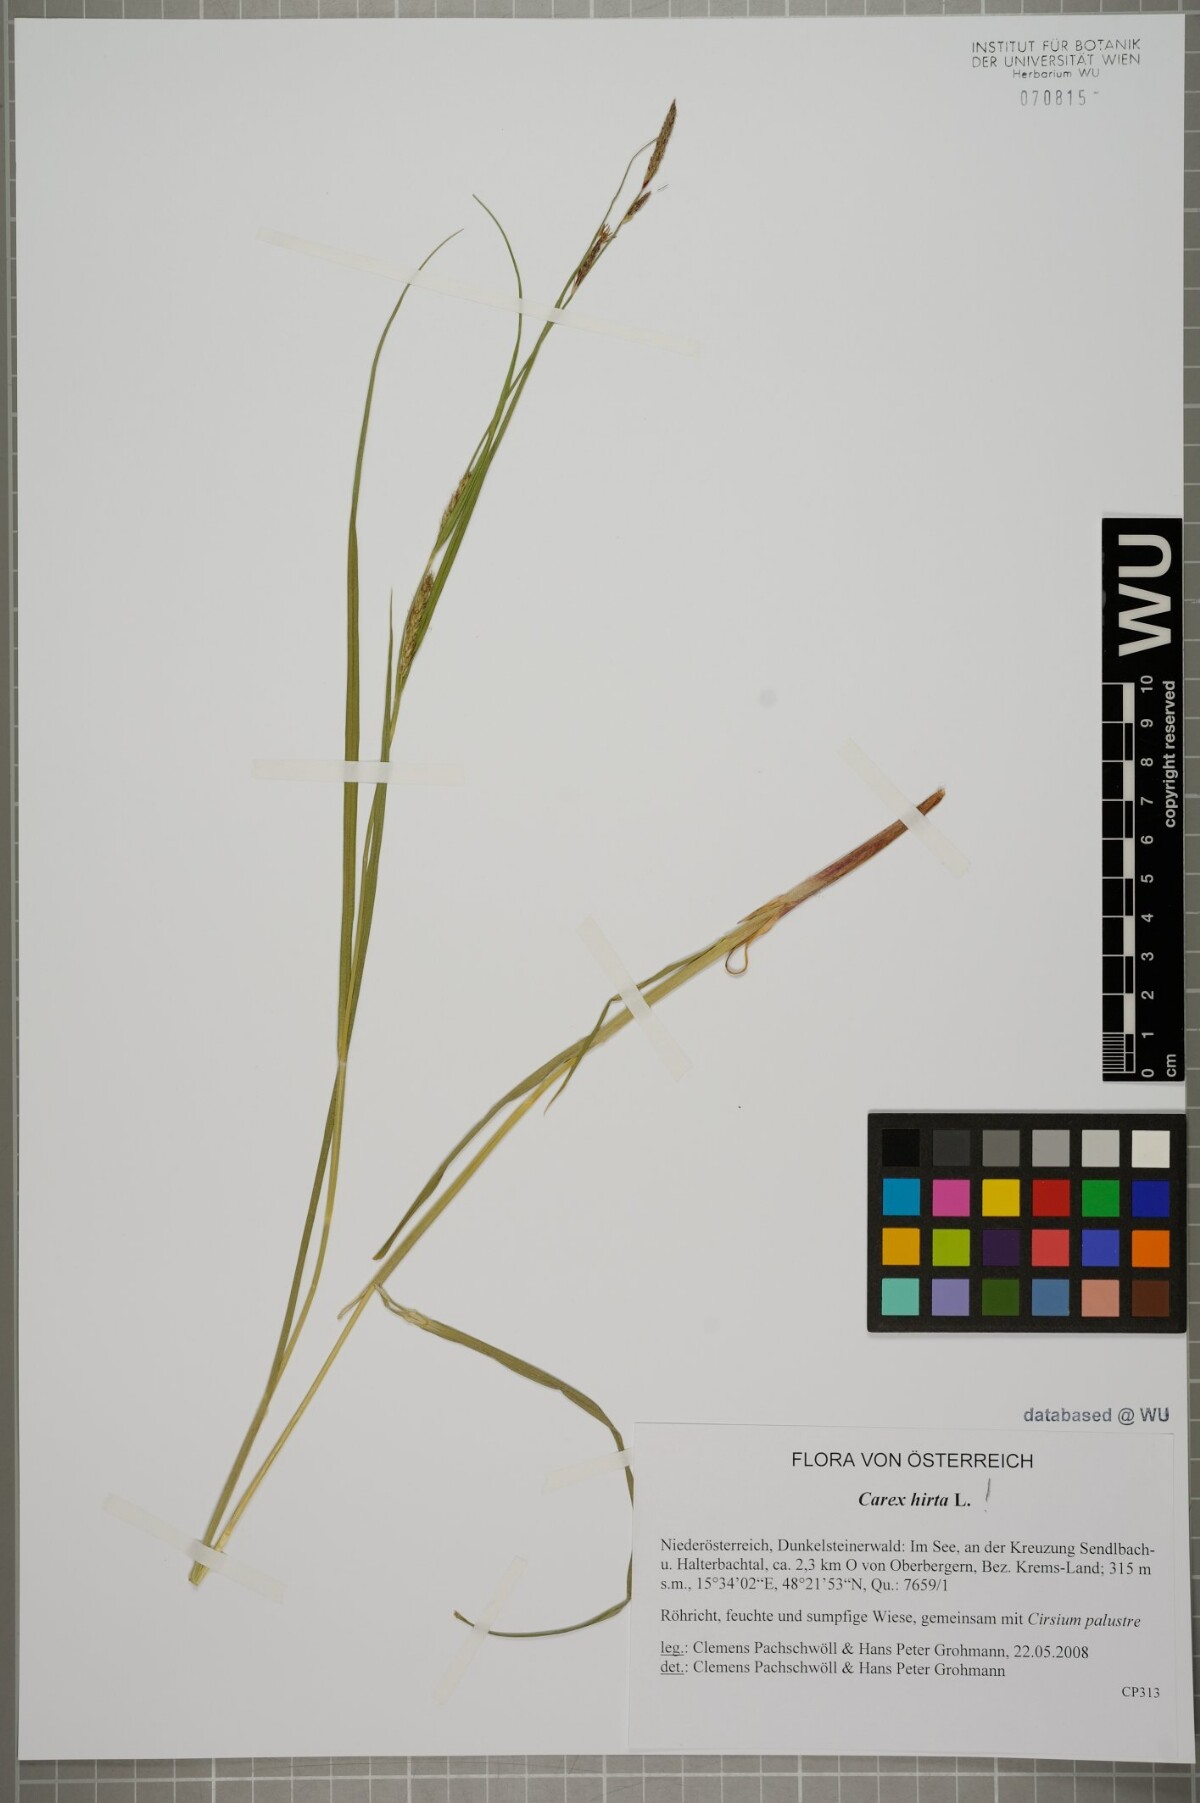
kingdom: Plantae
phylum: Tracheophyta
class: Liliopsida
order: Poales
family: Cyperaceae
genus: Carex
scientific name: Carex hirta
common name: Hairy sedge
